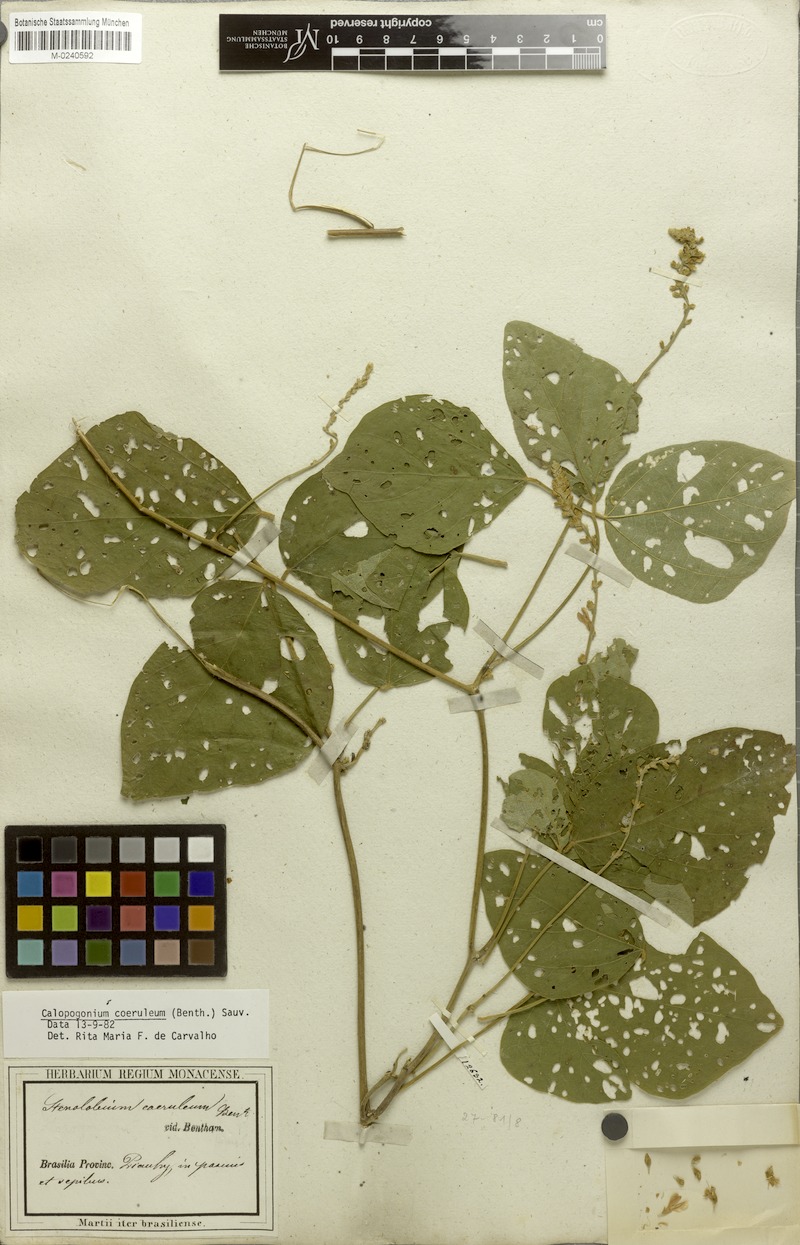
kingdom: Plantae
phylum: Tracheophyta
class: Magnoliopsida
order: Fabales
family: Fabaceae
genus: Calopogonium
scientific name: Calopogonium caeruleum
